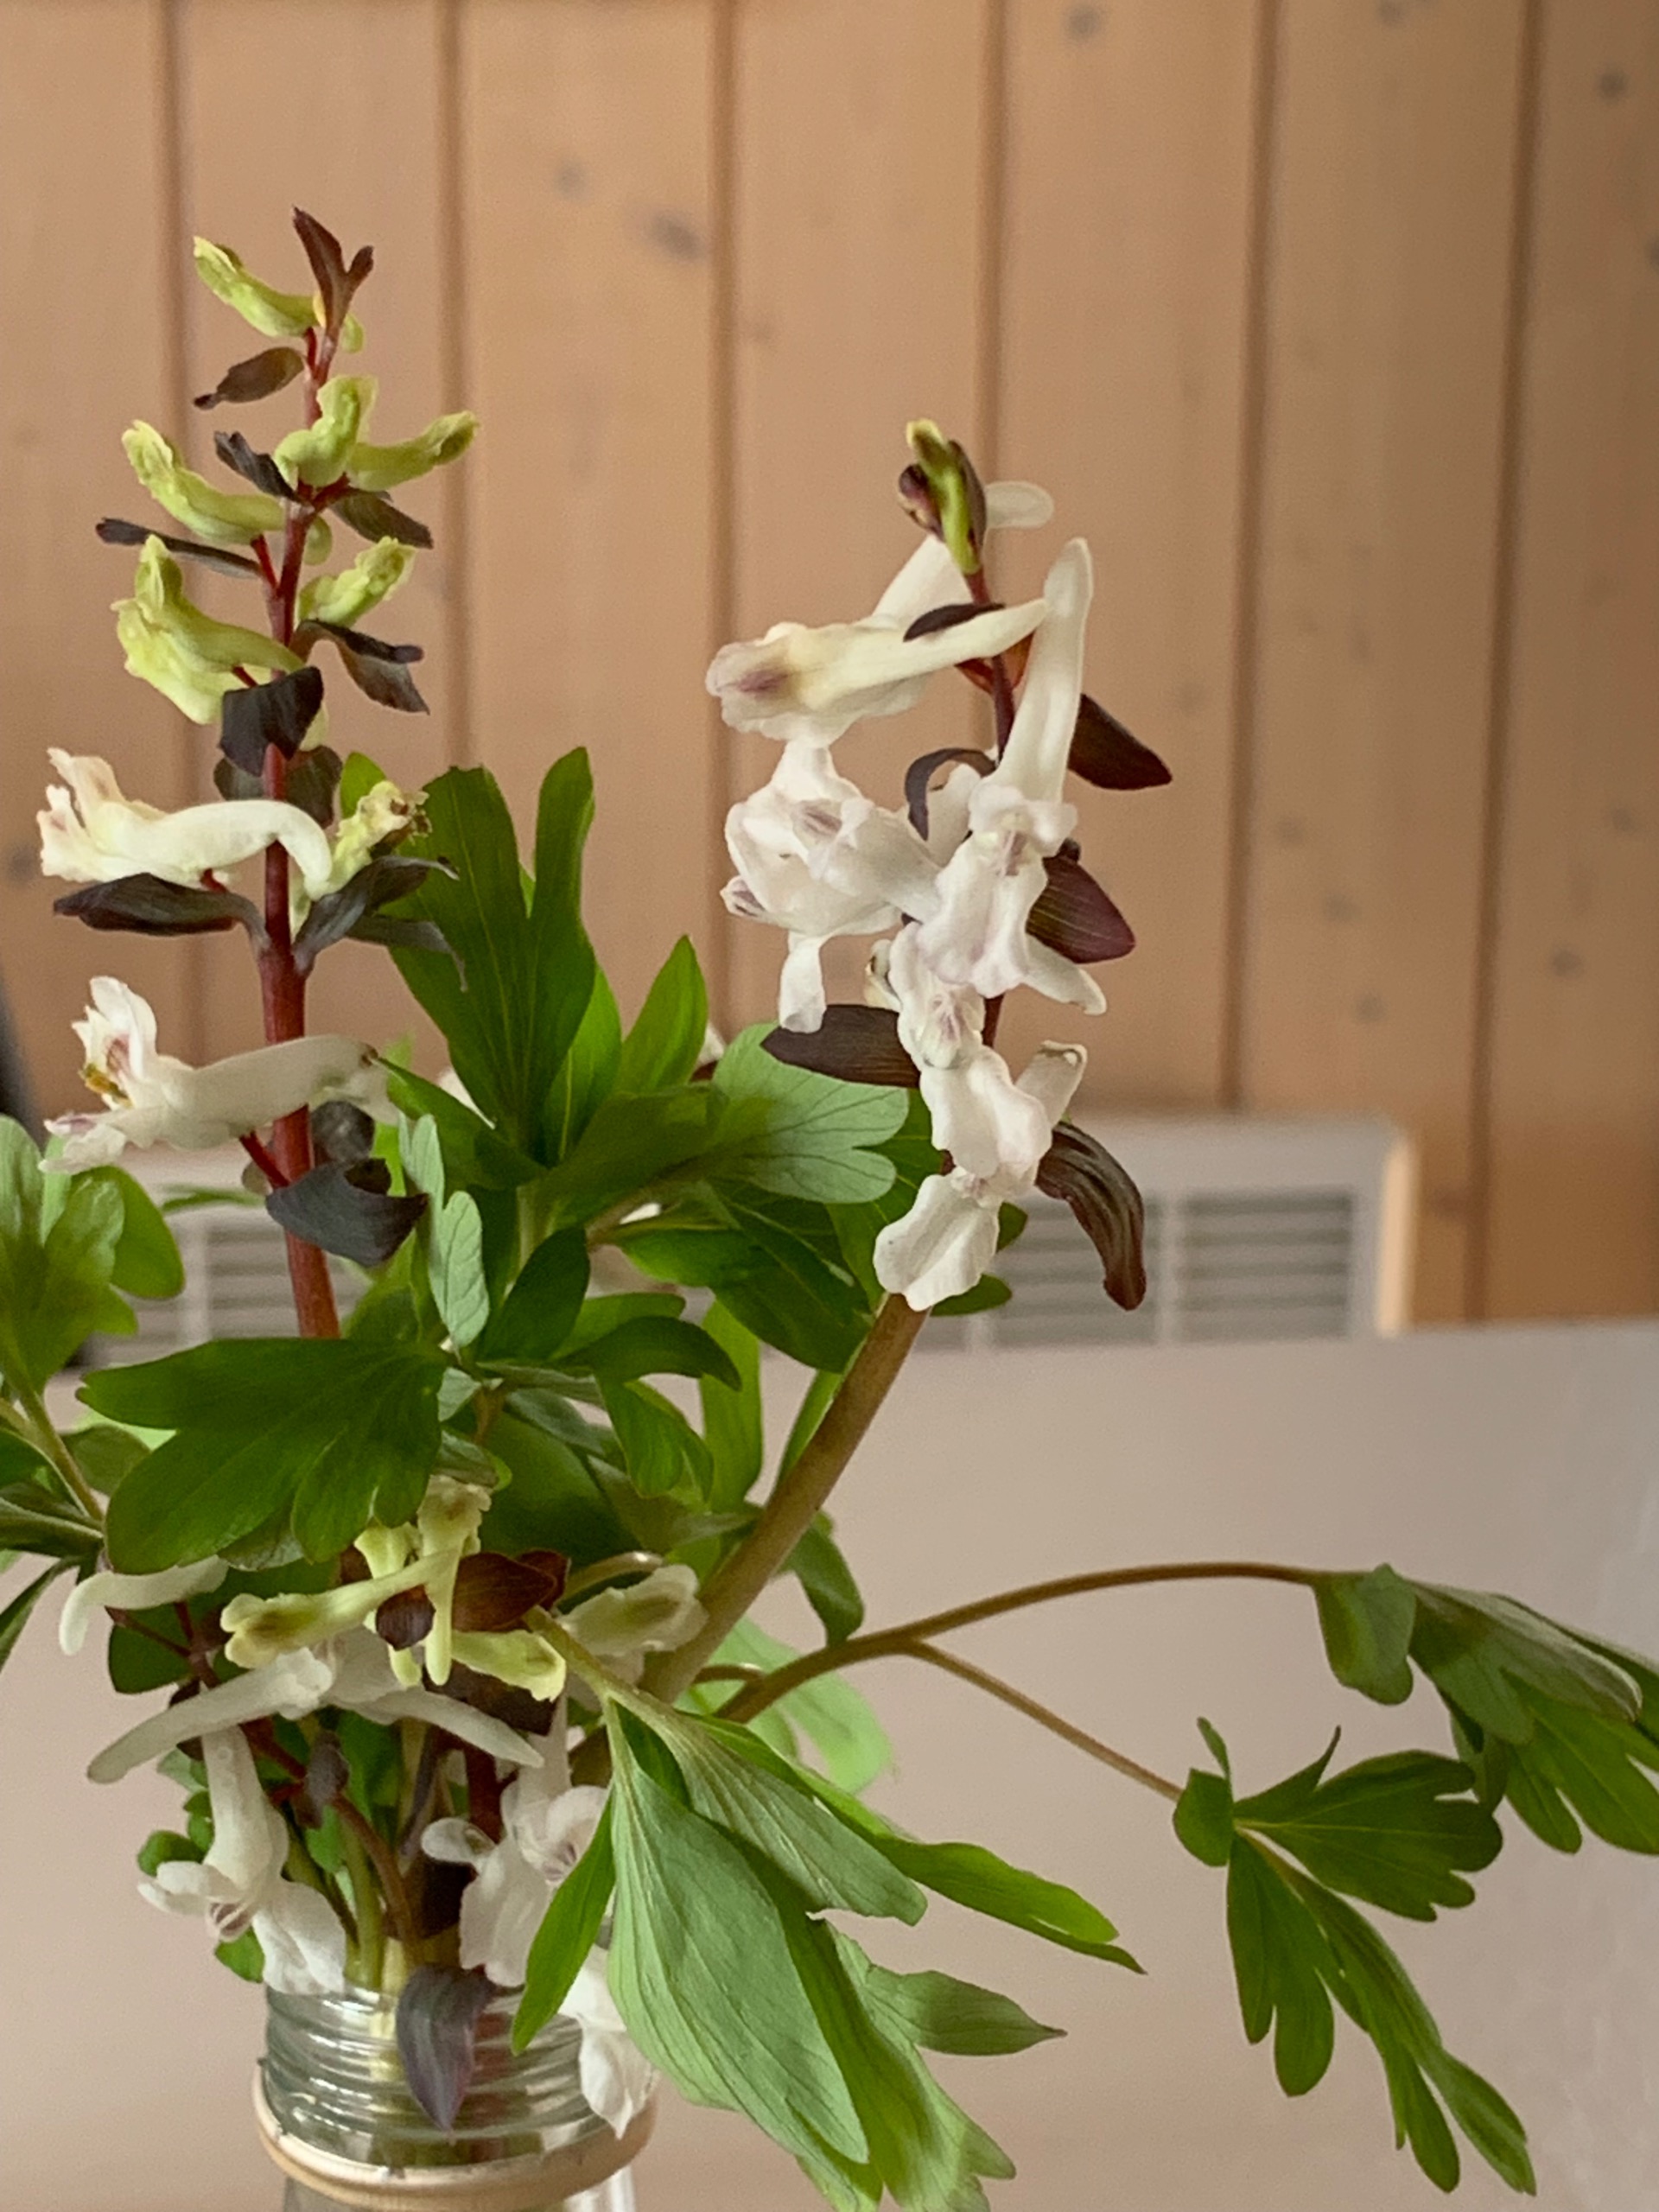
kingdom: Plantae
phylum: Tracheophyta
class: Magnoliopsida
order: Ranunculales
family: Papaveraceae
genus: Corydalis
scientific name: Corydalis cava
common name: Hulrodet lærkespore
